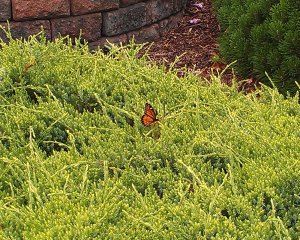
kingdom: Animalia
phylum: Arthropoda
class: Insecta
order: Lepidoptera
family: Nymphalidae
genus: Limenitis
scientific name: Limenitis archippus
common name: Viceroy
